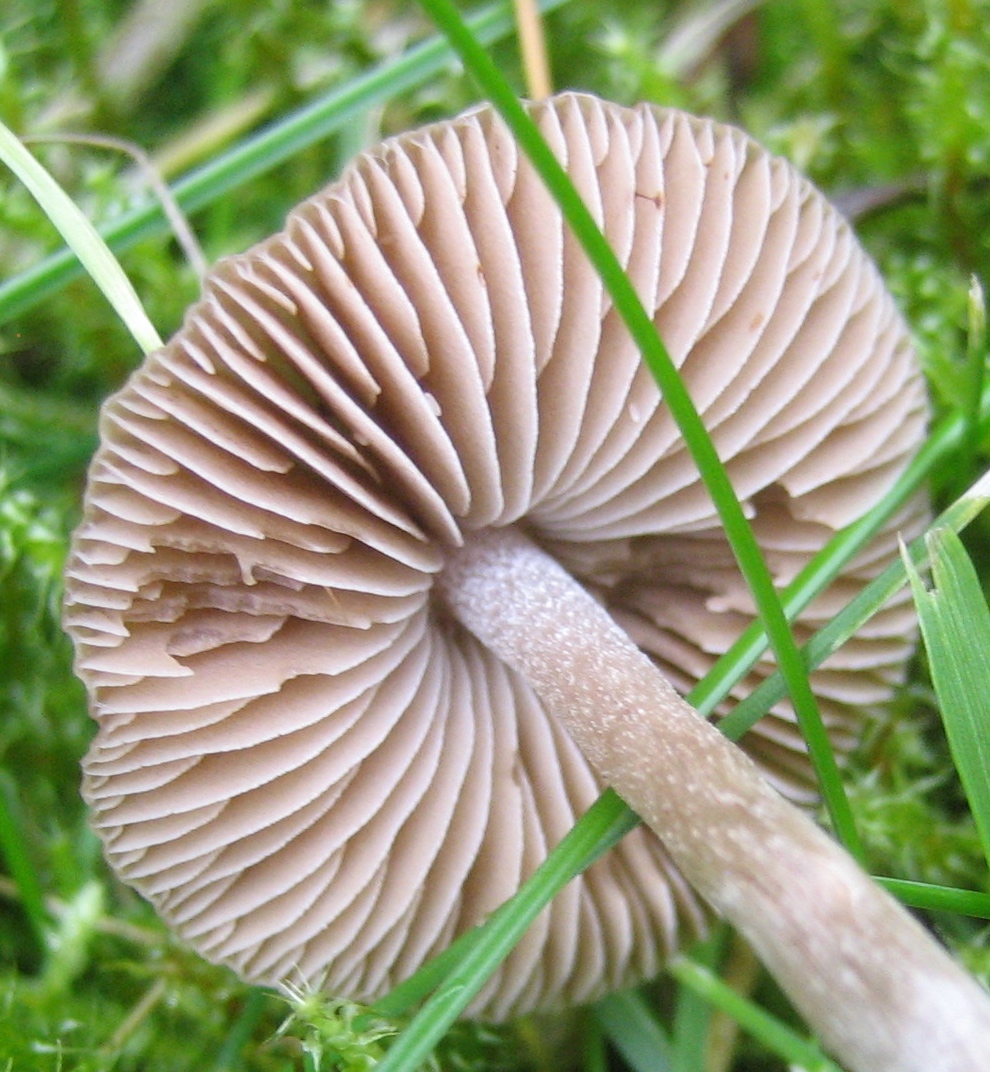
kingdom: Fungi
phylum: Basidiomycota
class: Agaricomycetes
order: Agaricales
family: Entolomataceae
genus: Entoloma
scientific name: Entoloma
